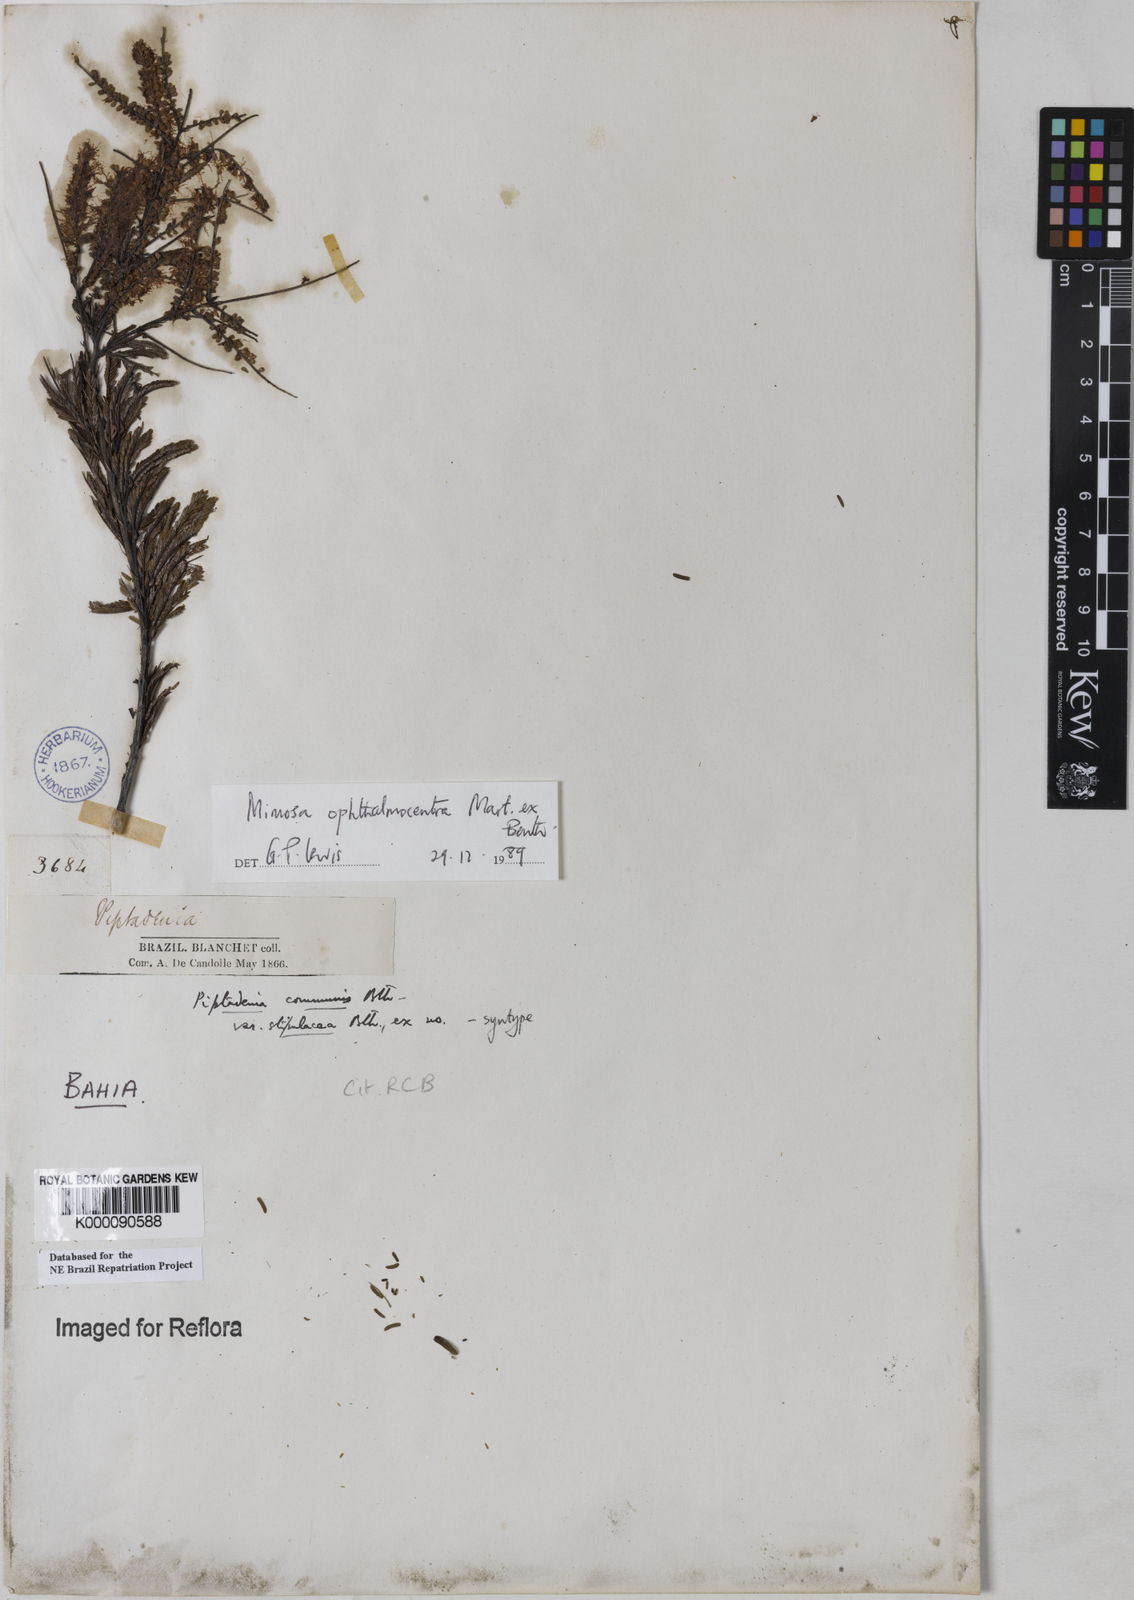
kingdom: Plantae
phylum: Tracheophyta
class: Magnoliopsida
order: Fabales
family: Fabaceae
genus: Mimosa
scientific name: Mimosa
